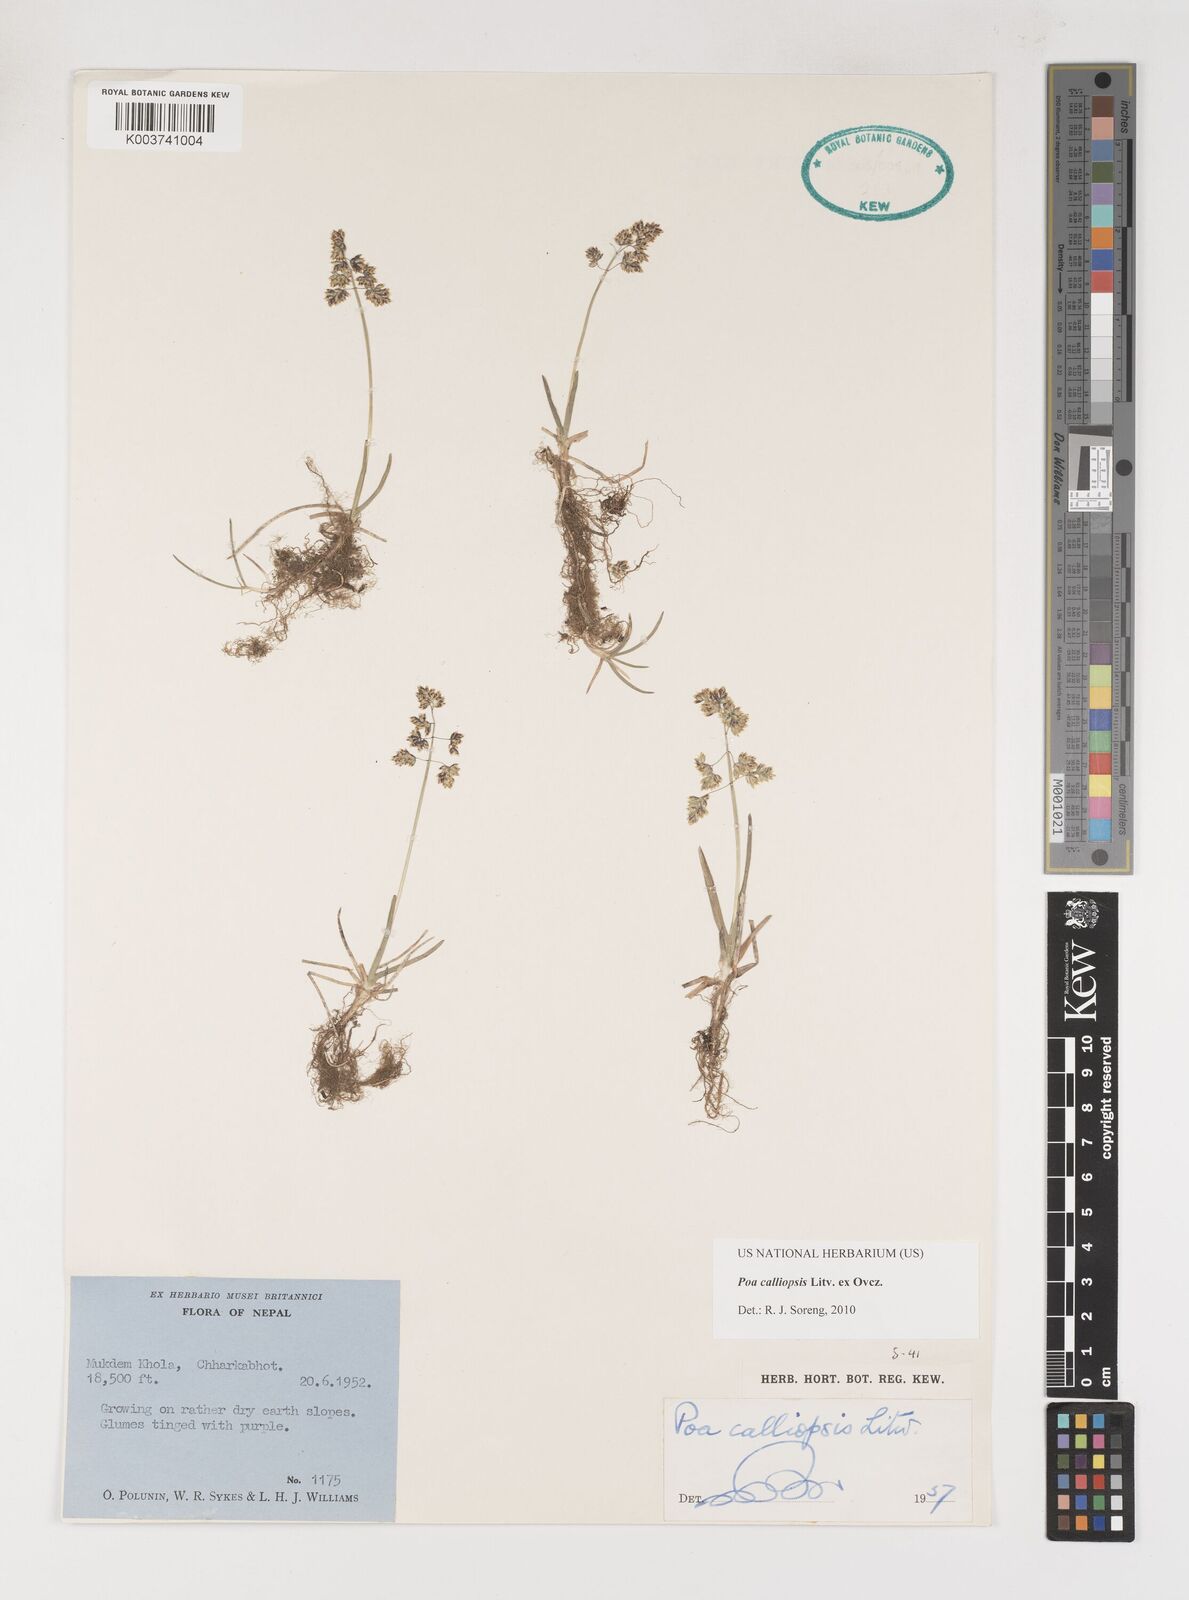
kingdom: Plantae
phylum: Tracheophyta
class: Liliopsida
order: Poales
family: Poaceae
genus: Poa
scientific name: Poa calliopsis
